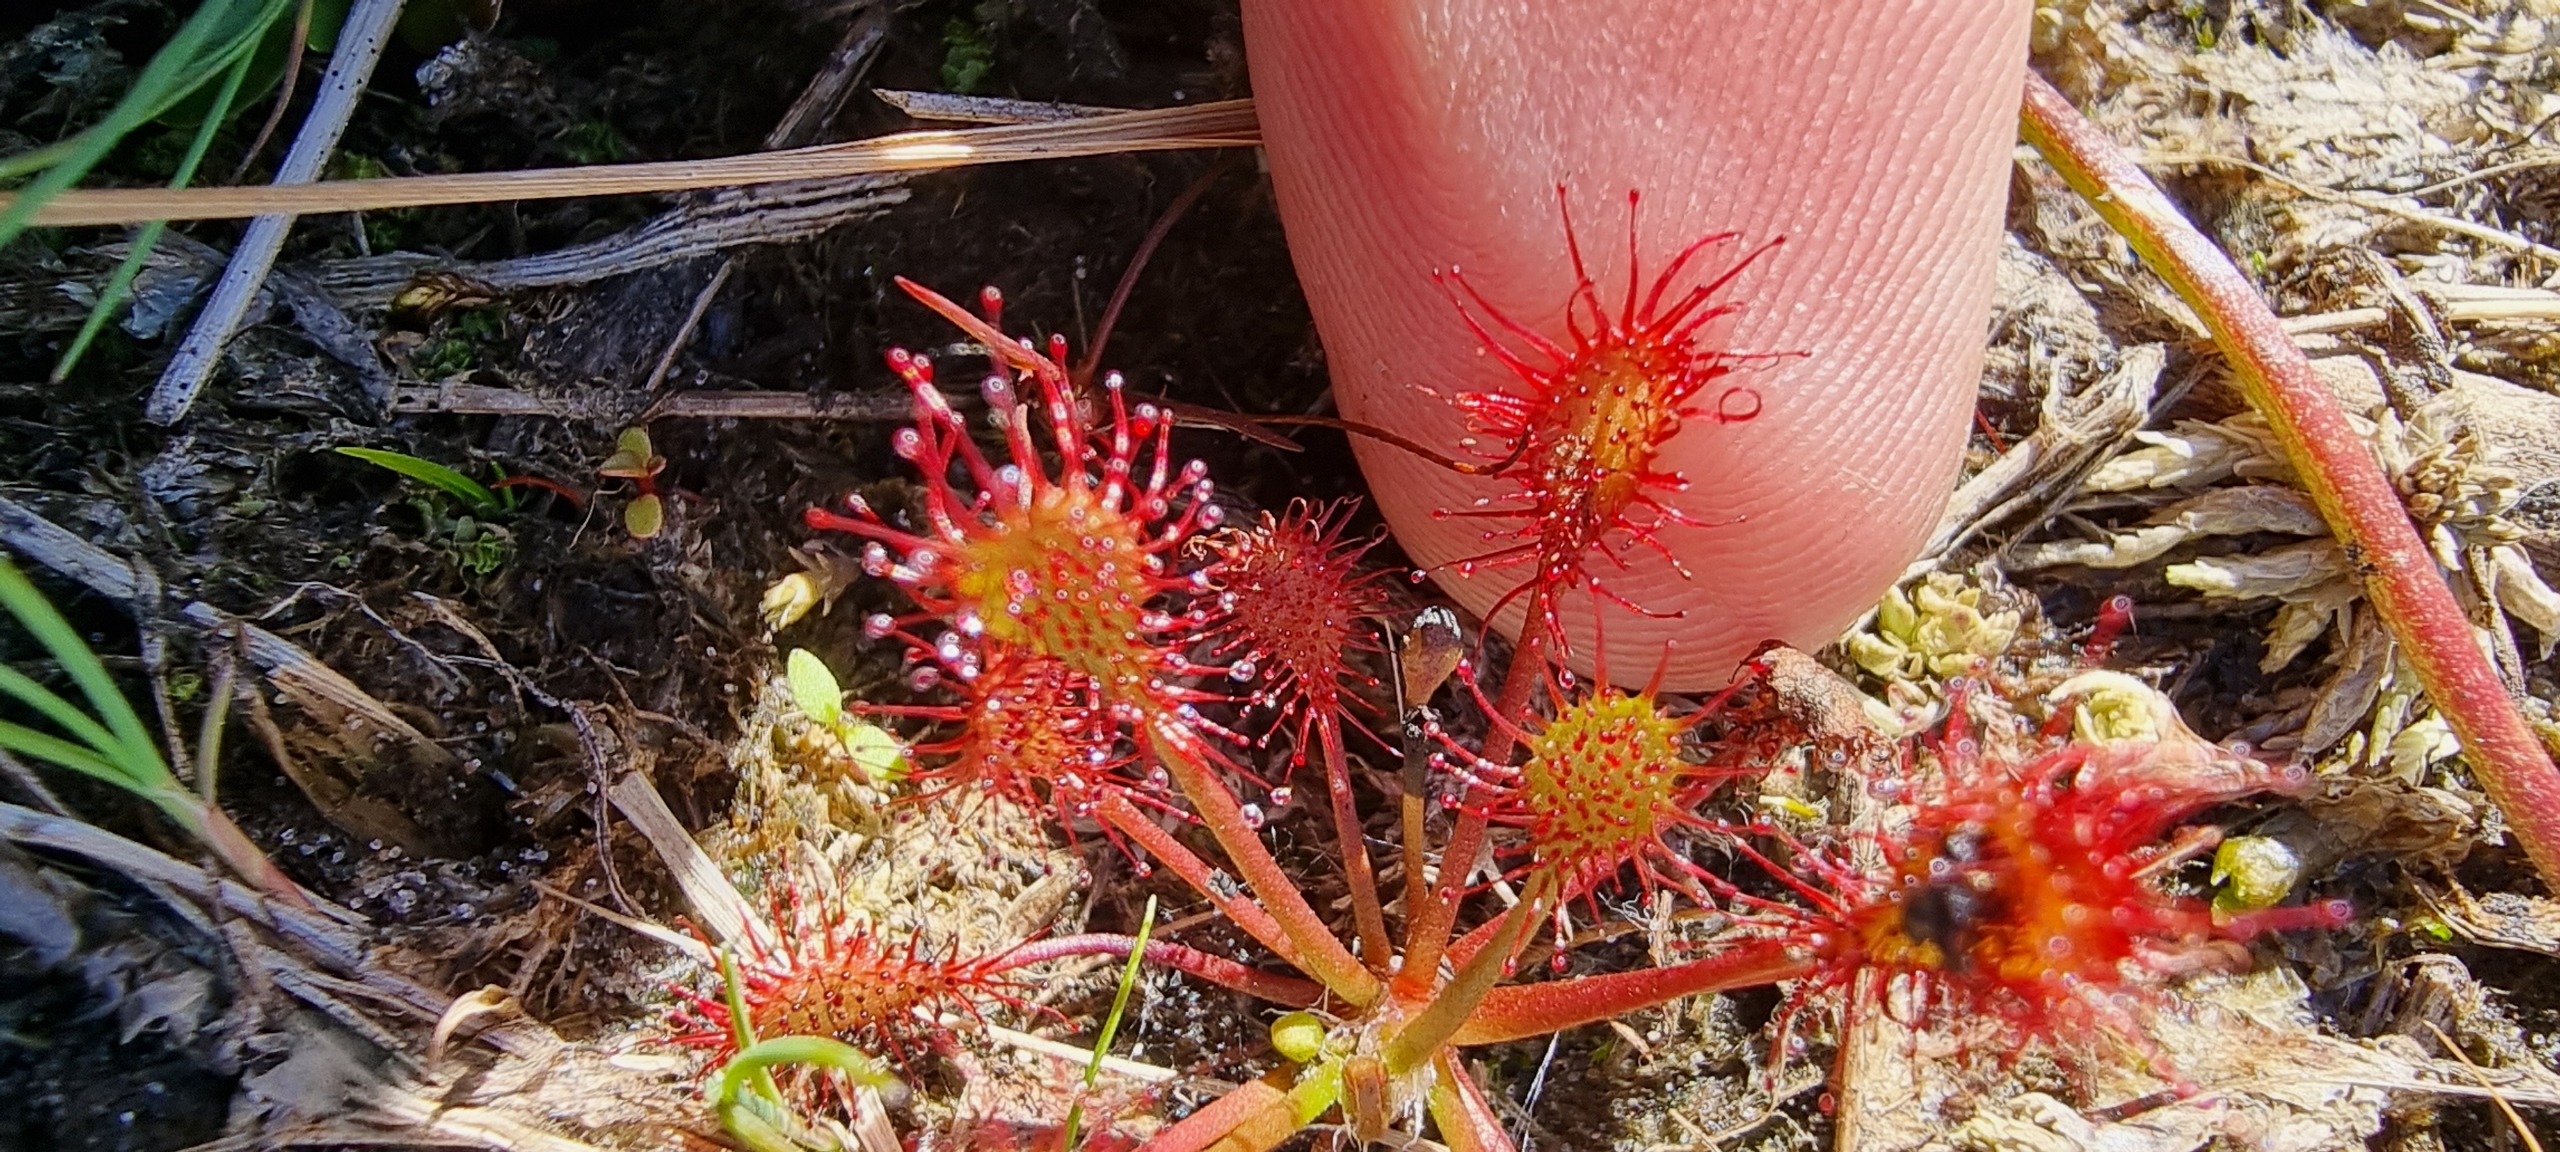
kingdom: Plantae
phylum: Tracheophyta
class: Magnoliopsida
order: Caryophyllales
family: Droseraceae
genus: Drosera
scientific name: Drosera intermedia
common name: Liden soldug
